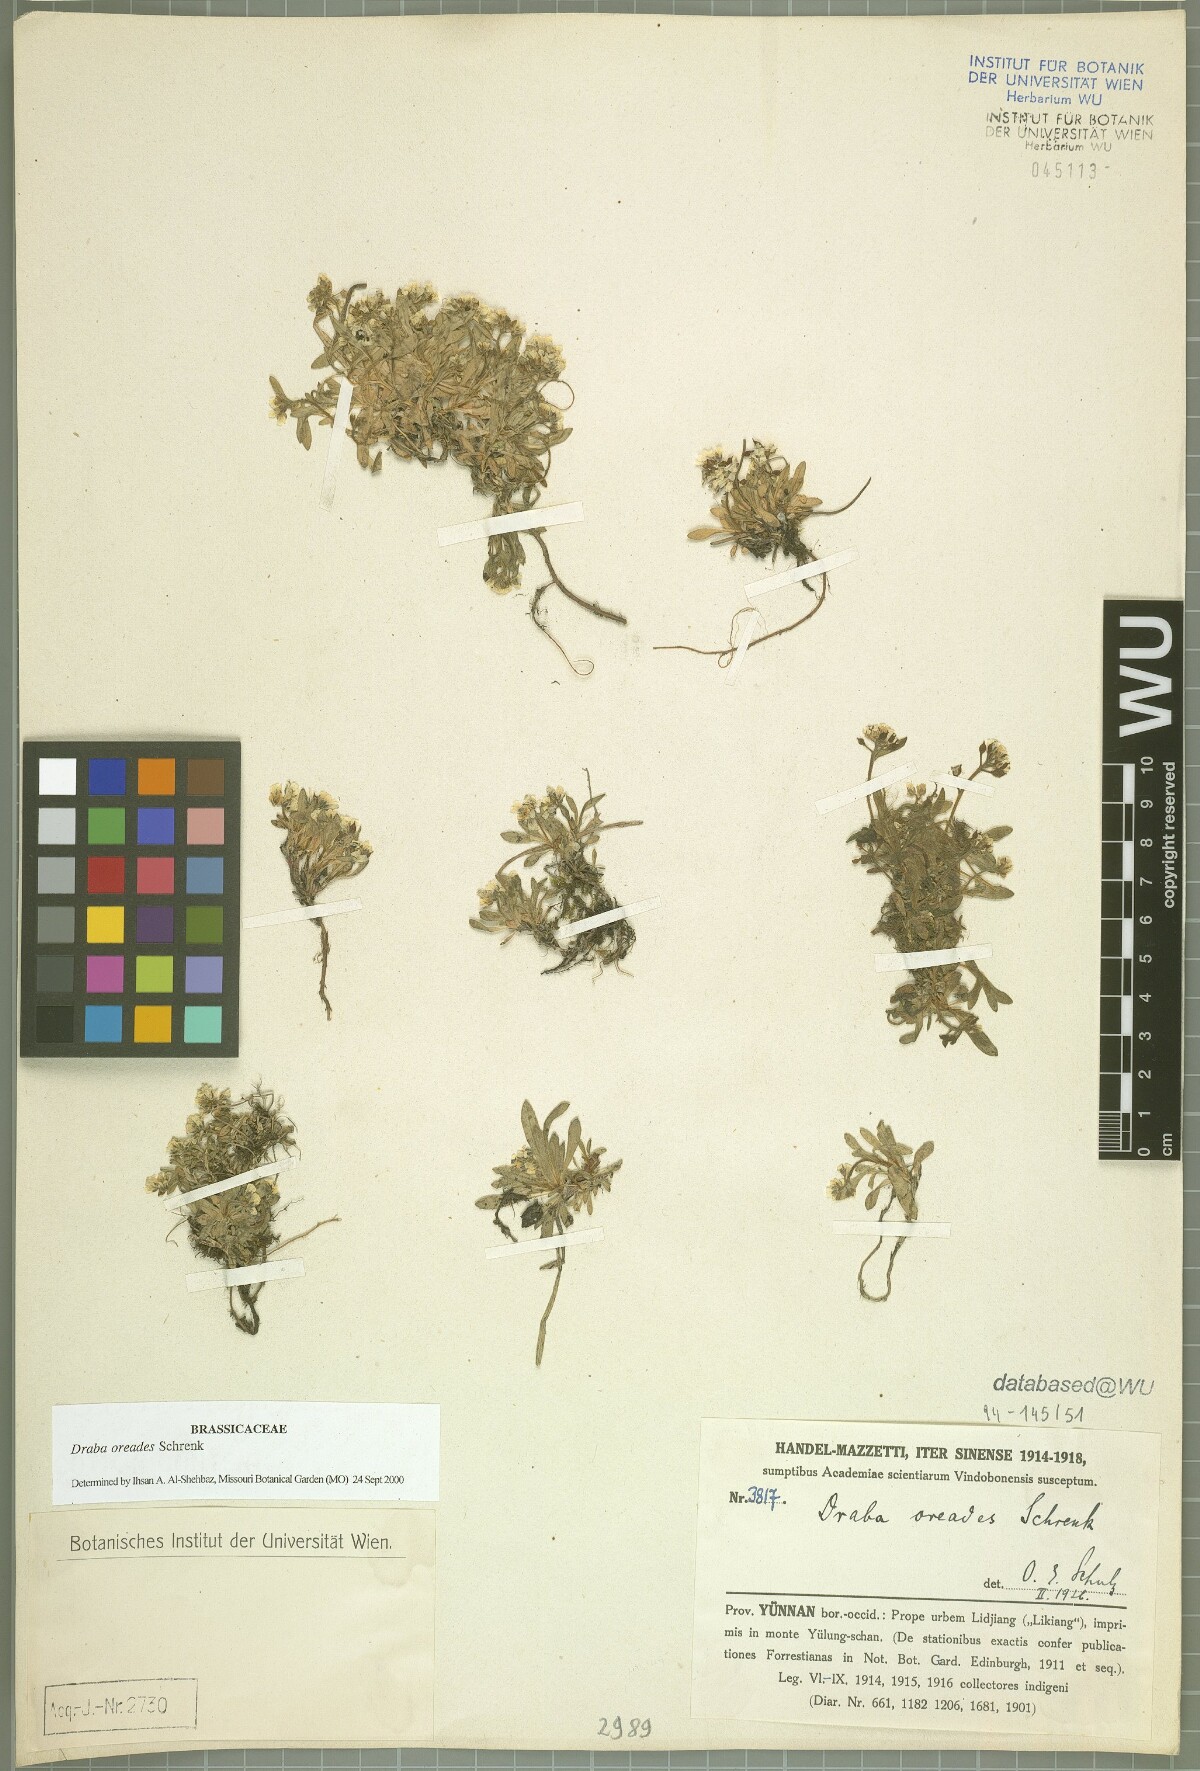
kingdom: Plantae
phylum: Tracheophyta
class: Magnoliopsida
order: Brassicales
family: Brassicaceae
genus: Draba
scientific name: Draba oreades
